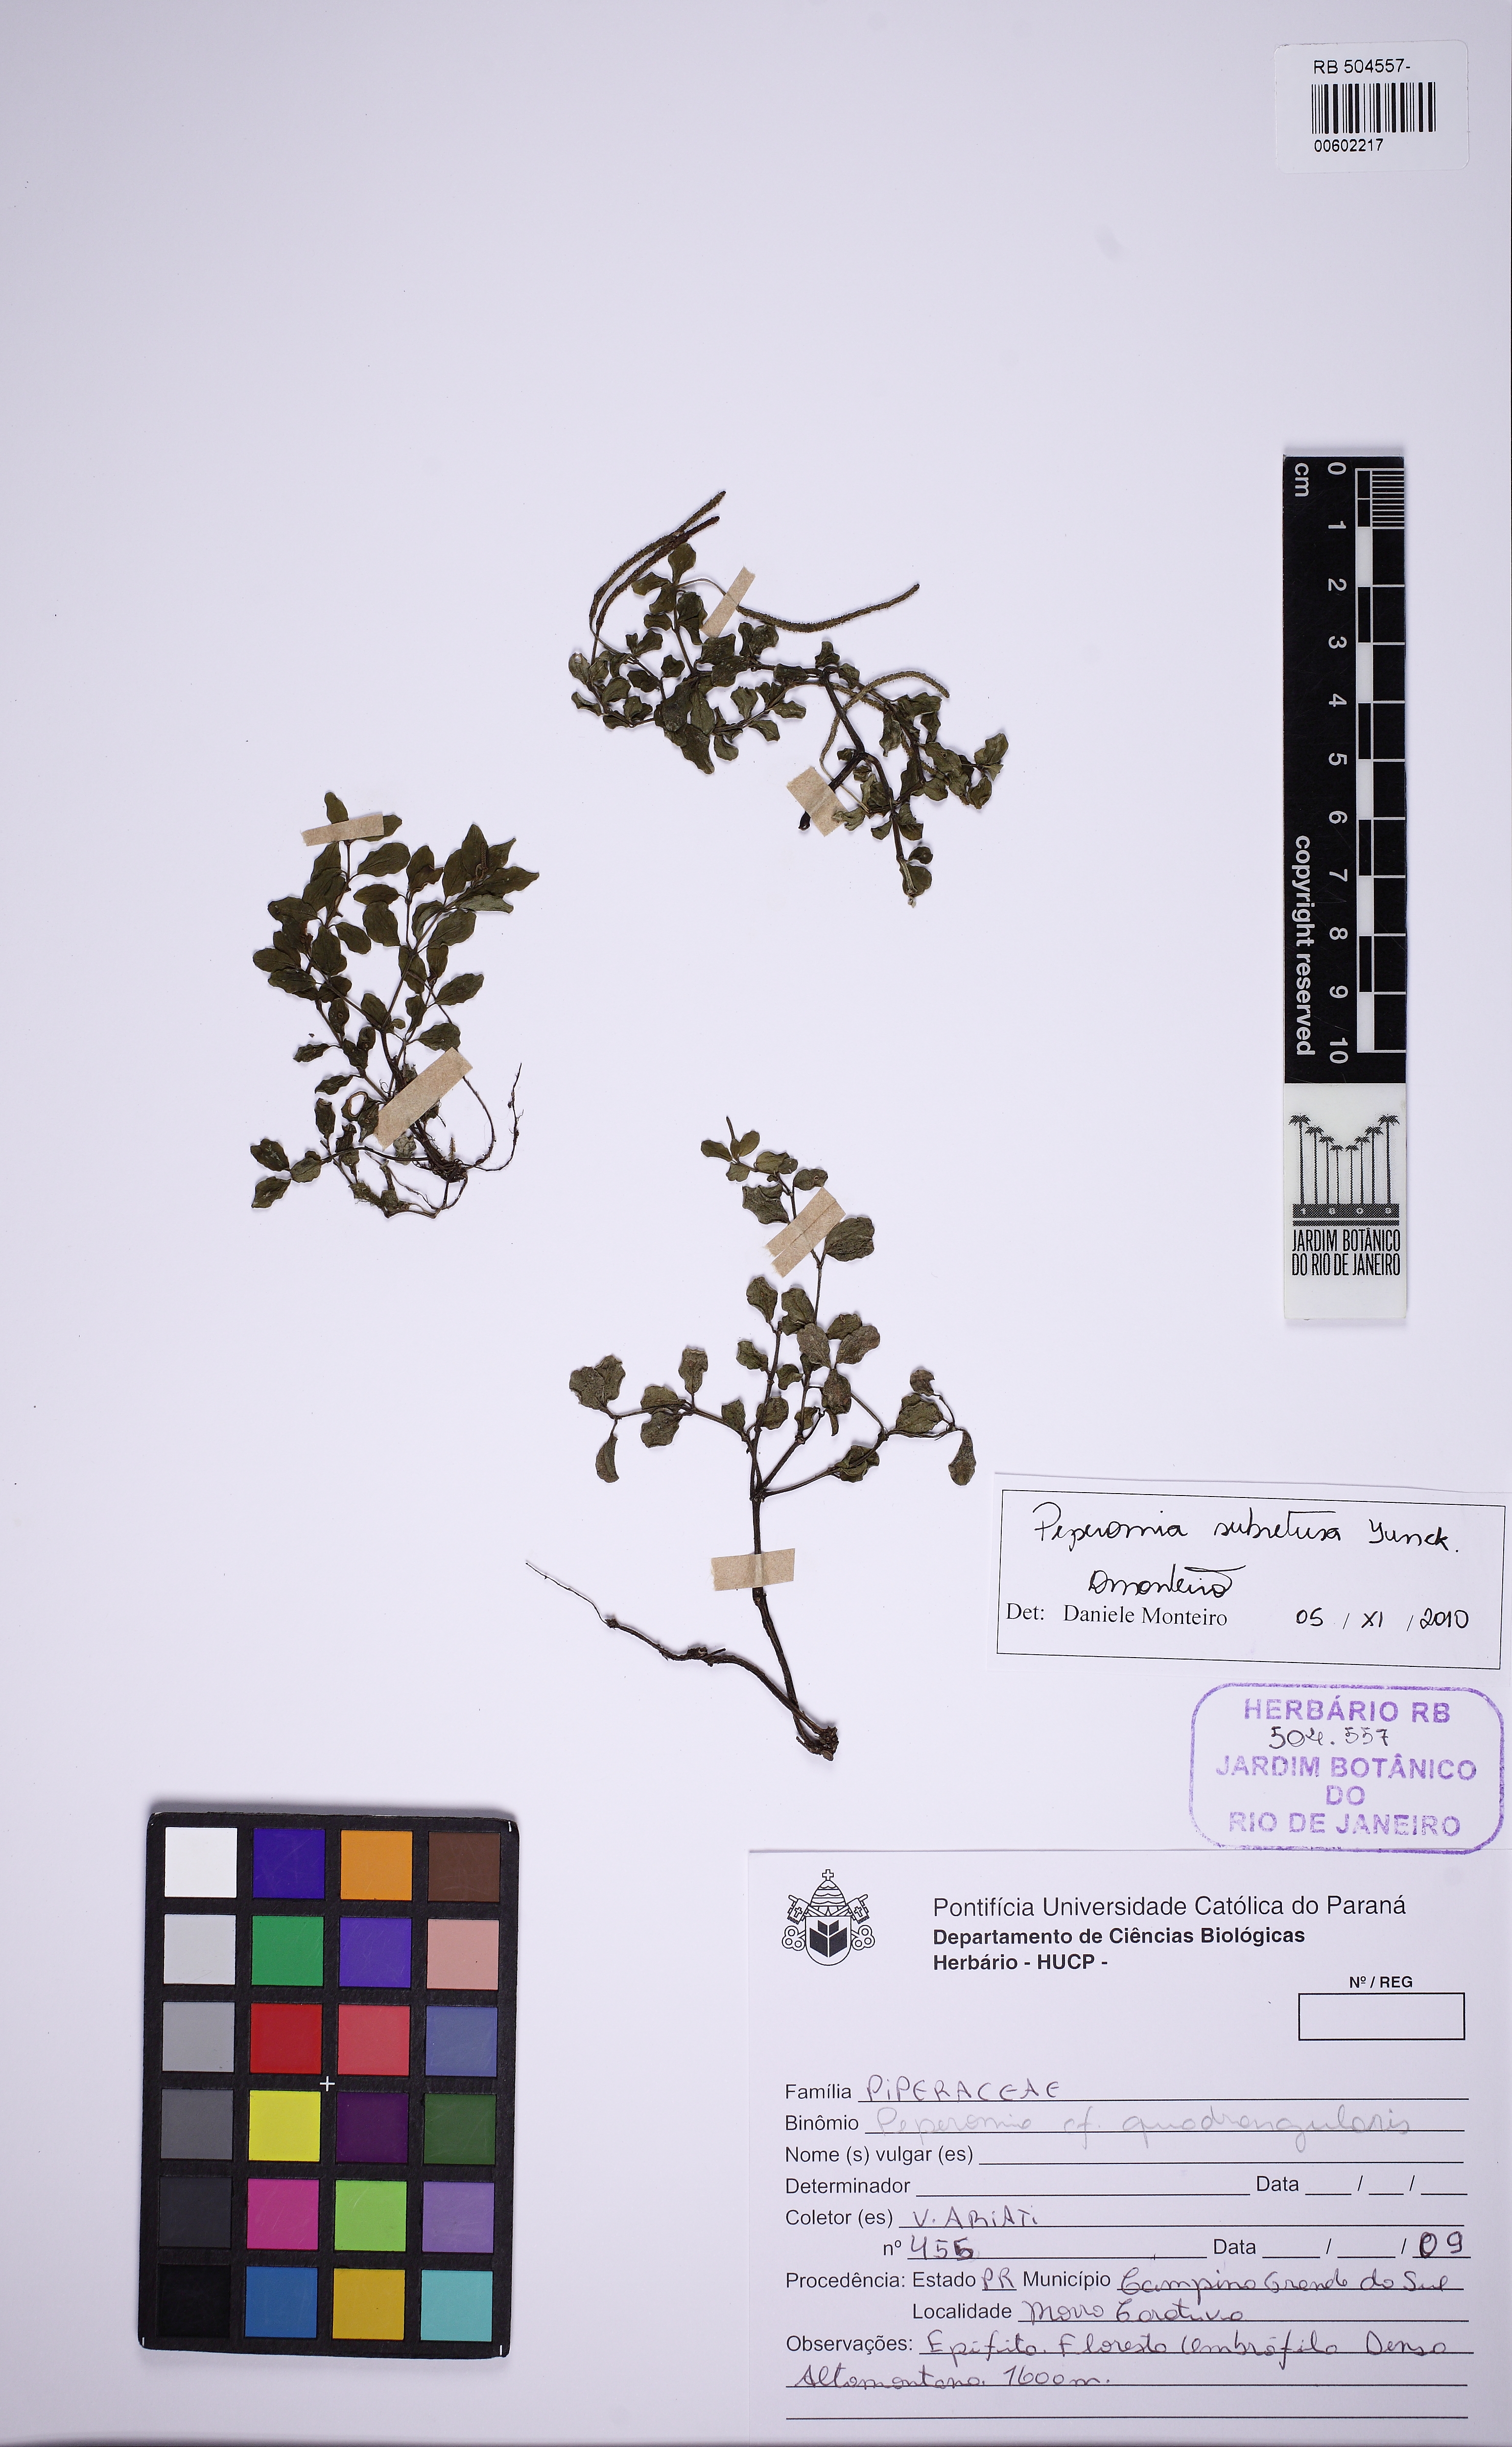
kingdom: Plantae
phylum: Tracheophyta
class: Magnoliopsida
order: Piperales
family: Piperaceae
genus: Peperomia
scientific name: Peperomia subretusa
